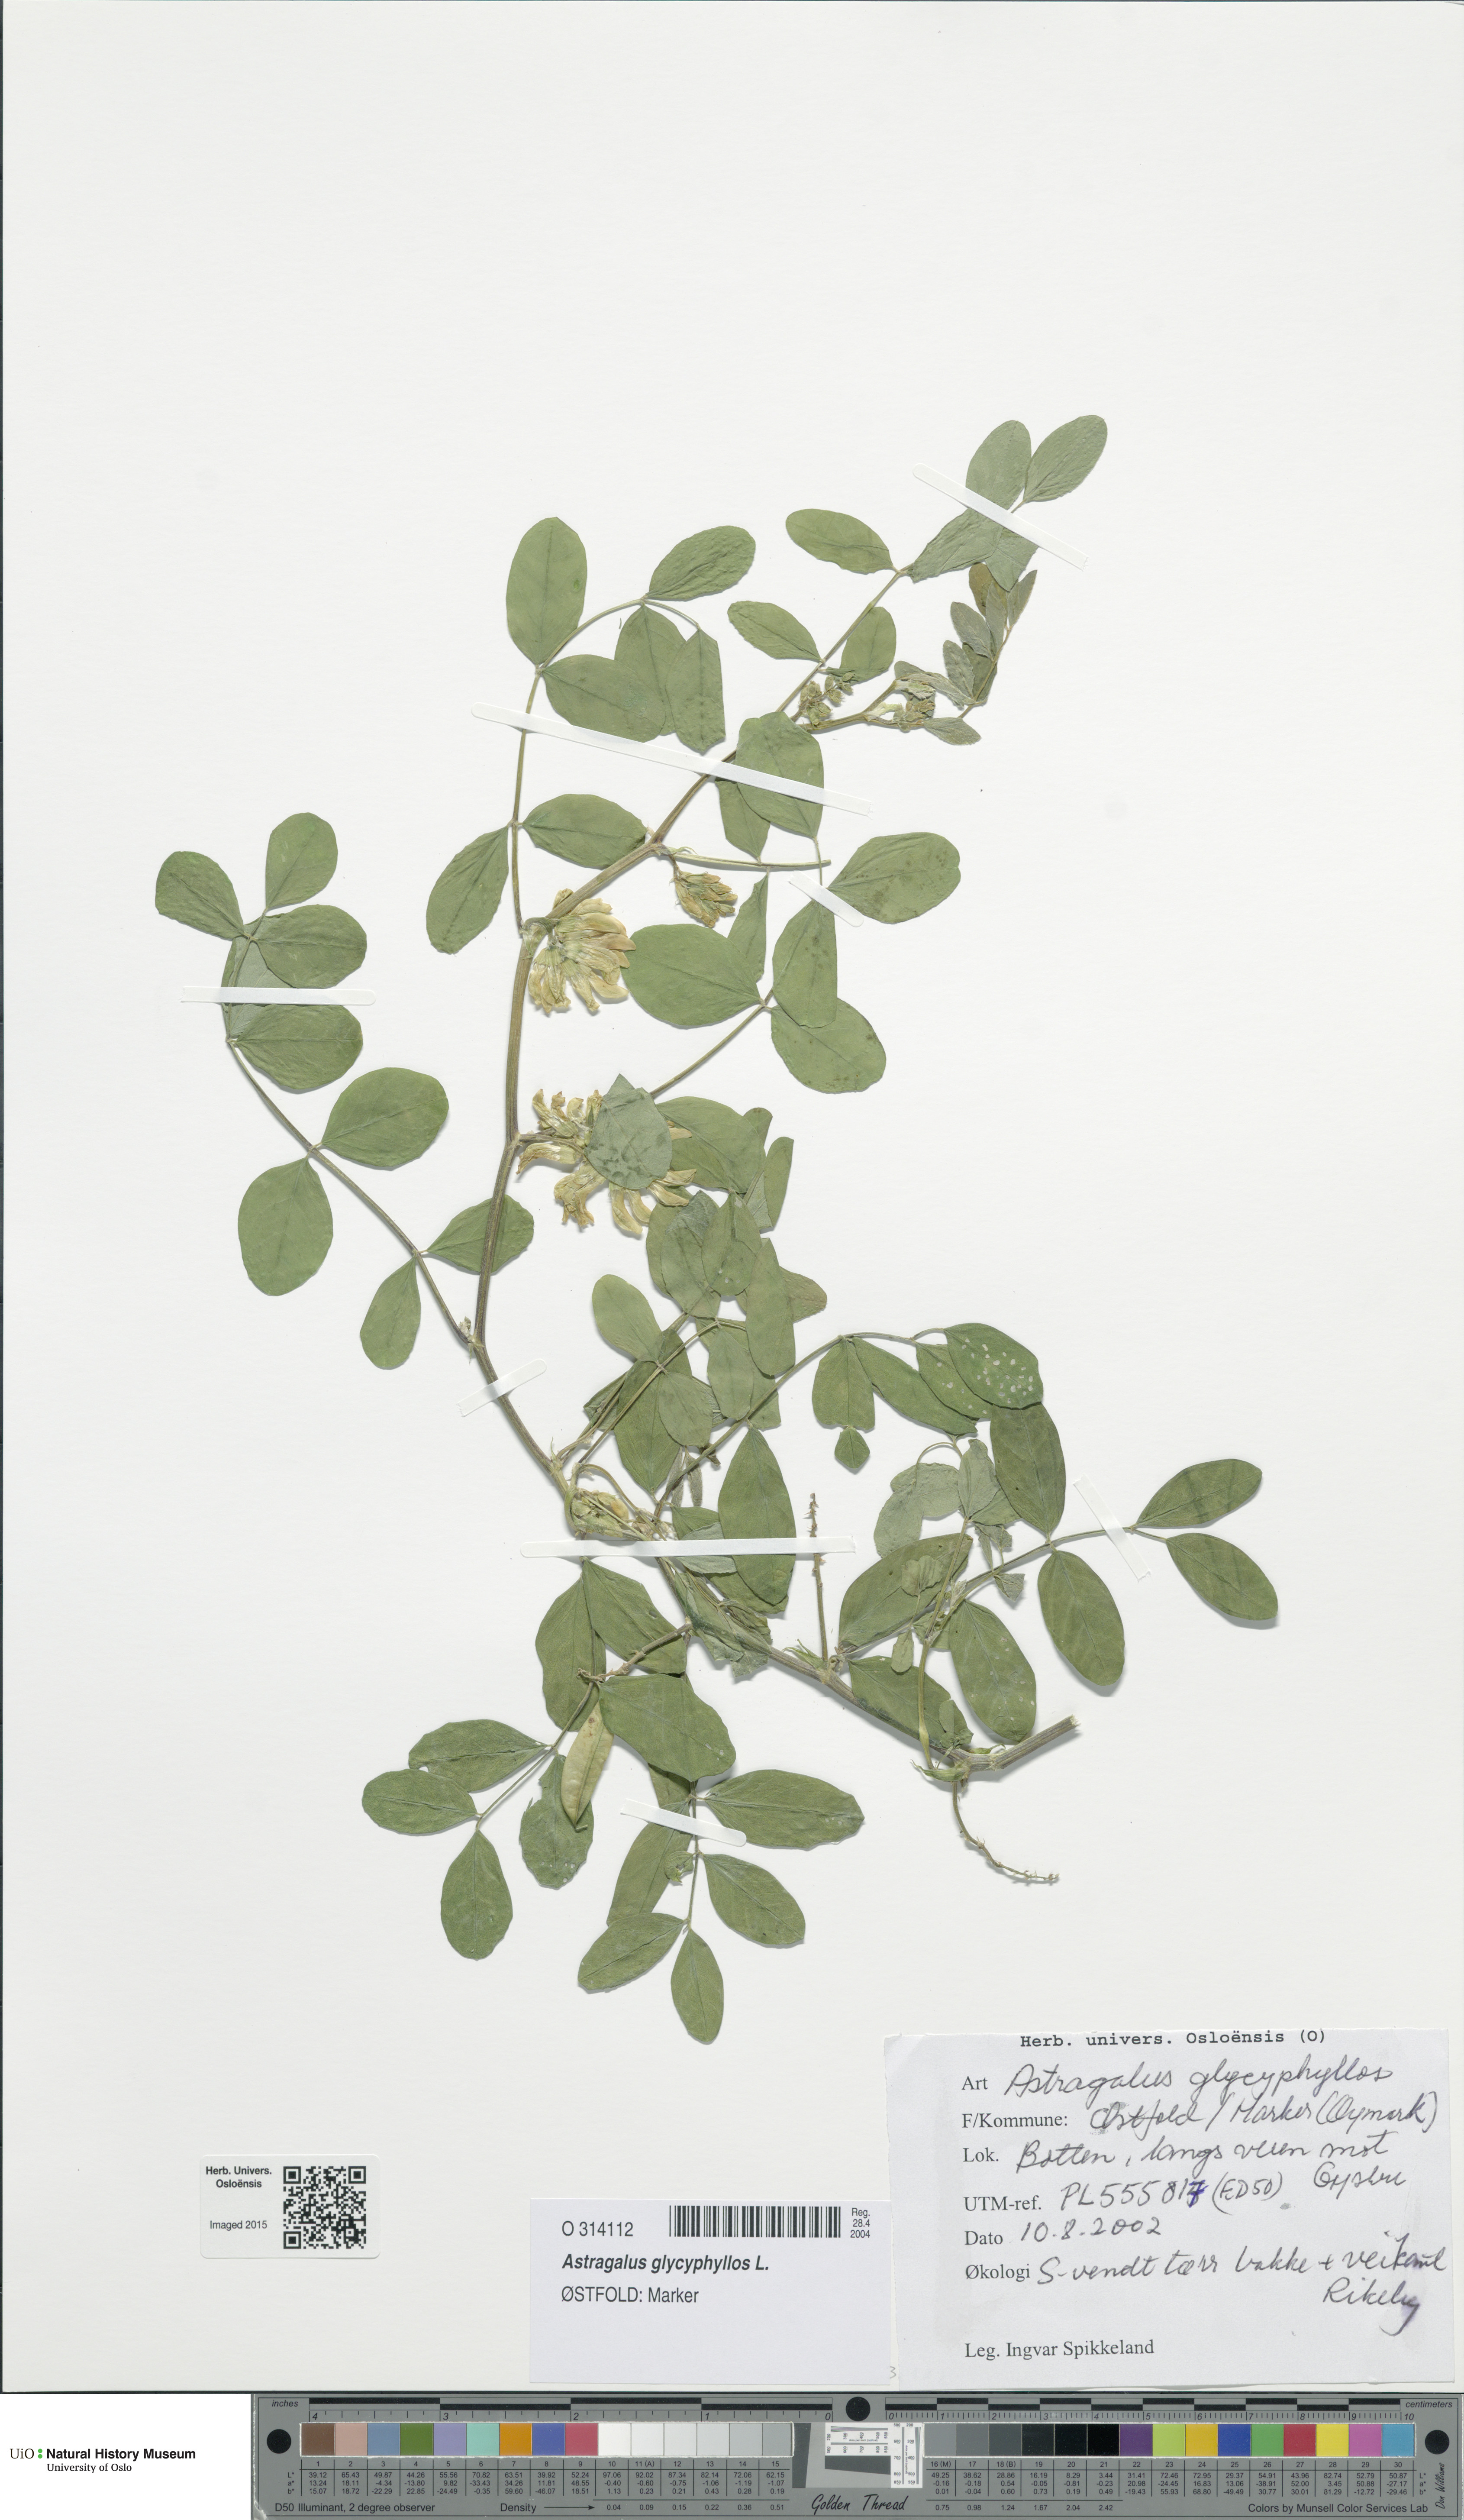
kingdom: Plantae
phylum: Tracheophyta
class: Magnoliopsida
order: Fabales
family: Fabaceae
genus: Astragalus
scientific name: Astragalus glycyphyllos
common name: Wild liquorice
